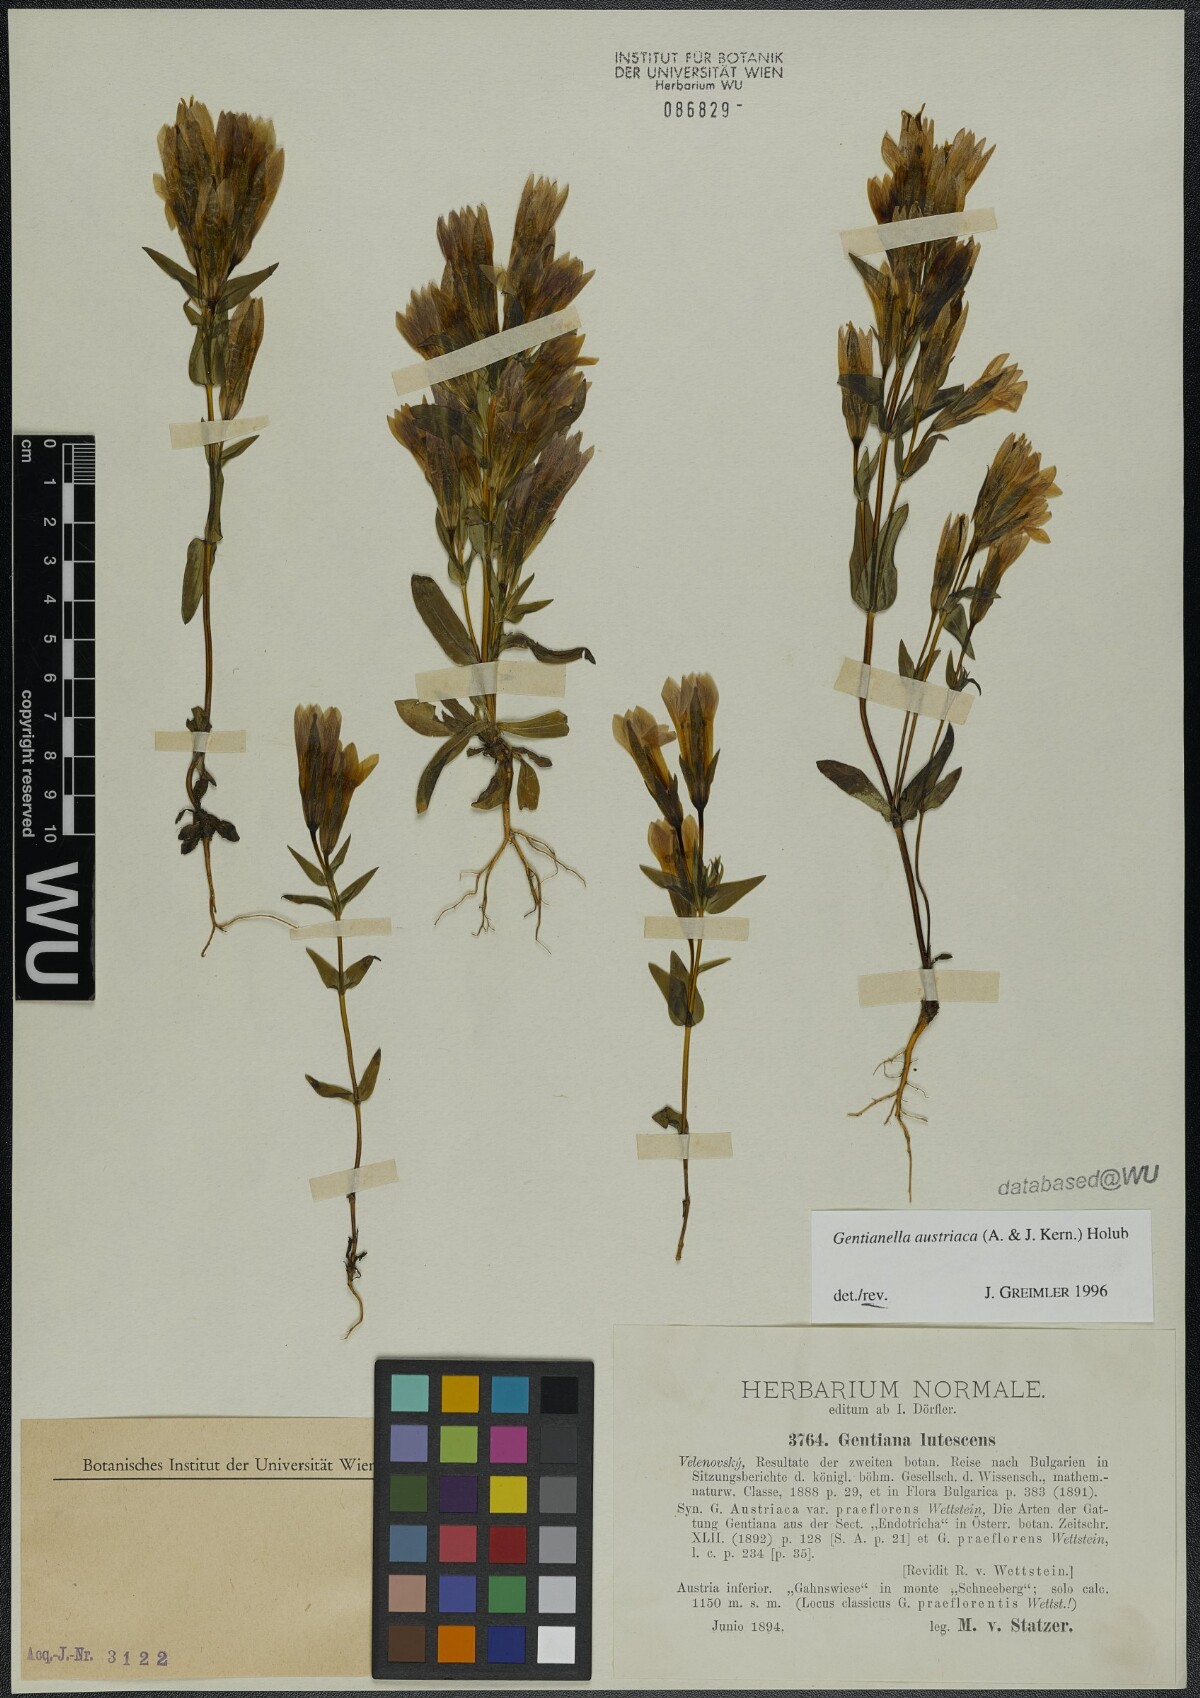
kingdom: Plantae
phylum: Tracheophyta
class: Magnoliopsida
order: Gentianales
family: Gentianaceae
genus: Gentianella
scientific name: Gentianella austriaca
